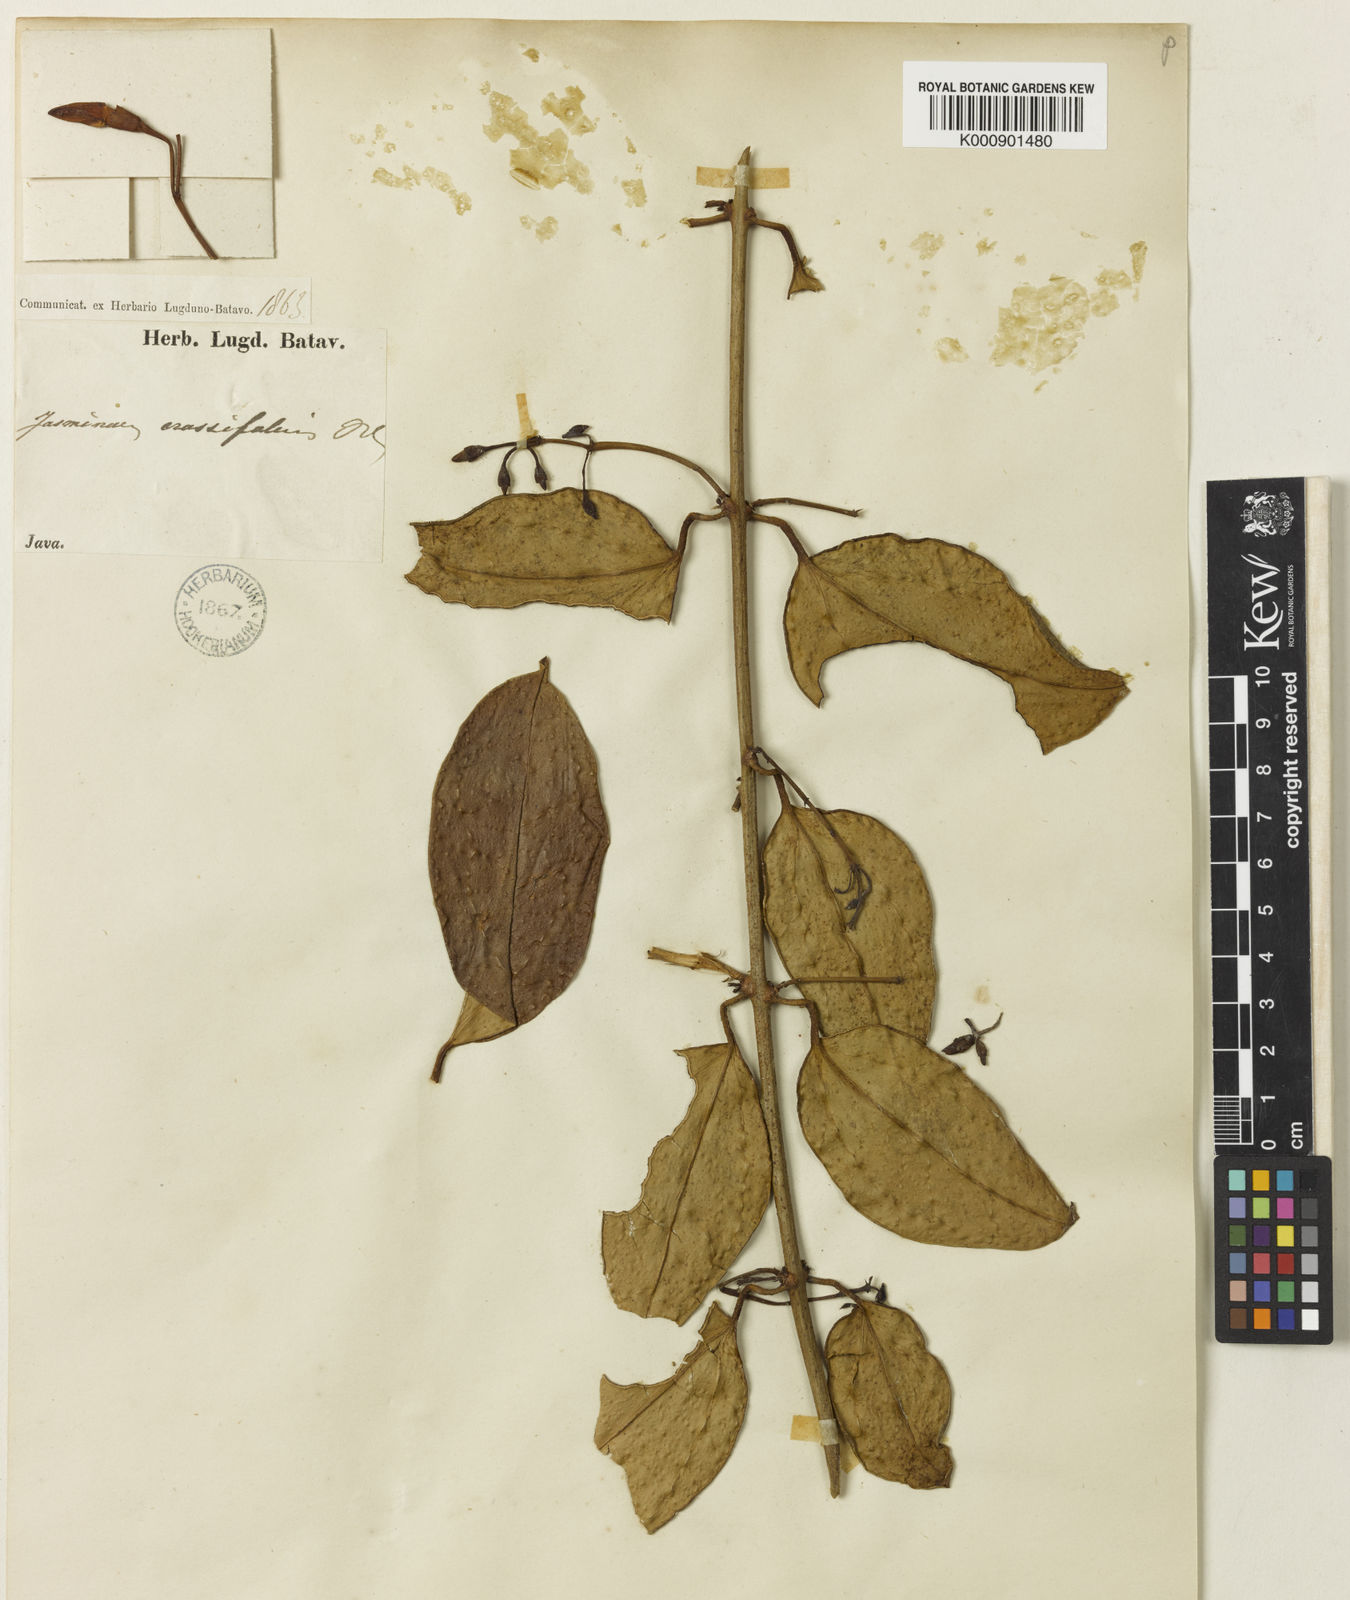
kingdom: Plantae
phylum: Tracheophyta
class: Magnoliopsida
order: Lamiales
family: Oleaceae
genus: Jasminum
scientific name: Jasminum crassifolium
